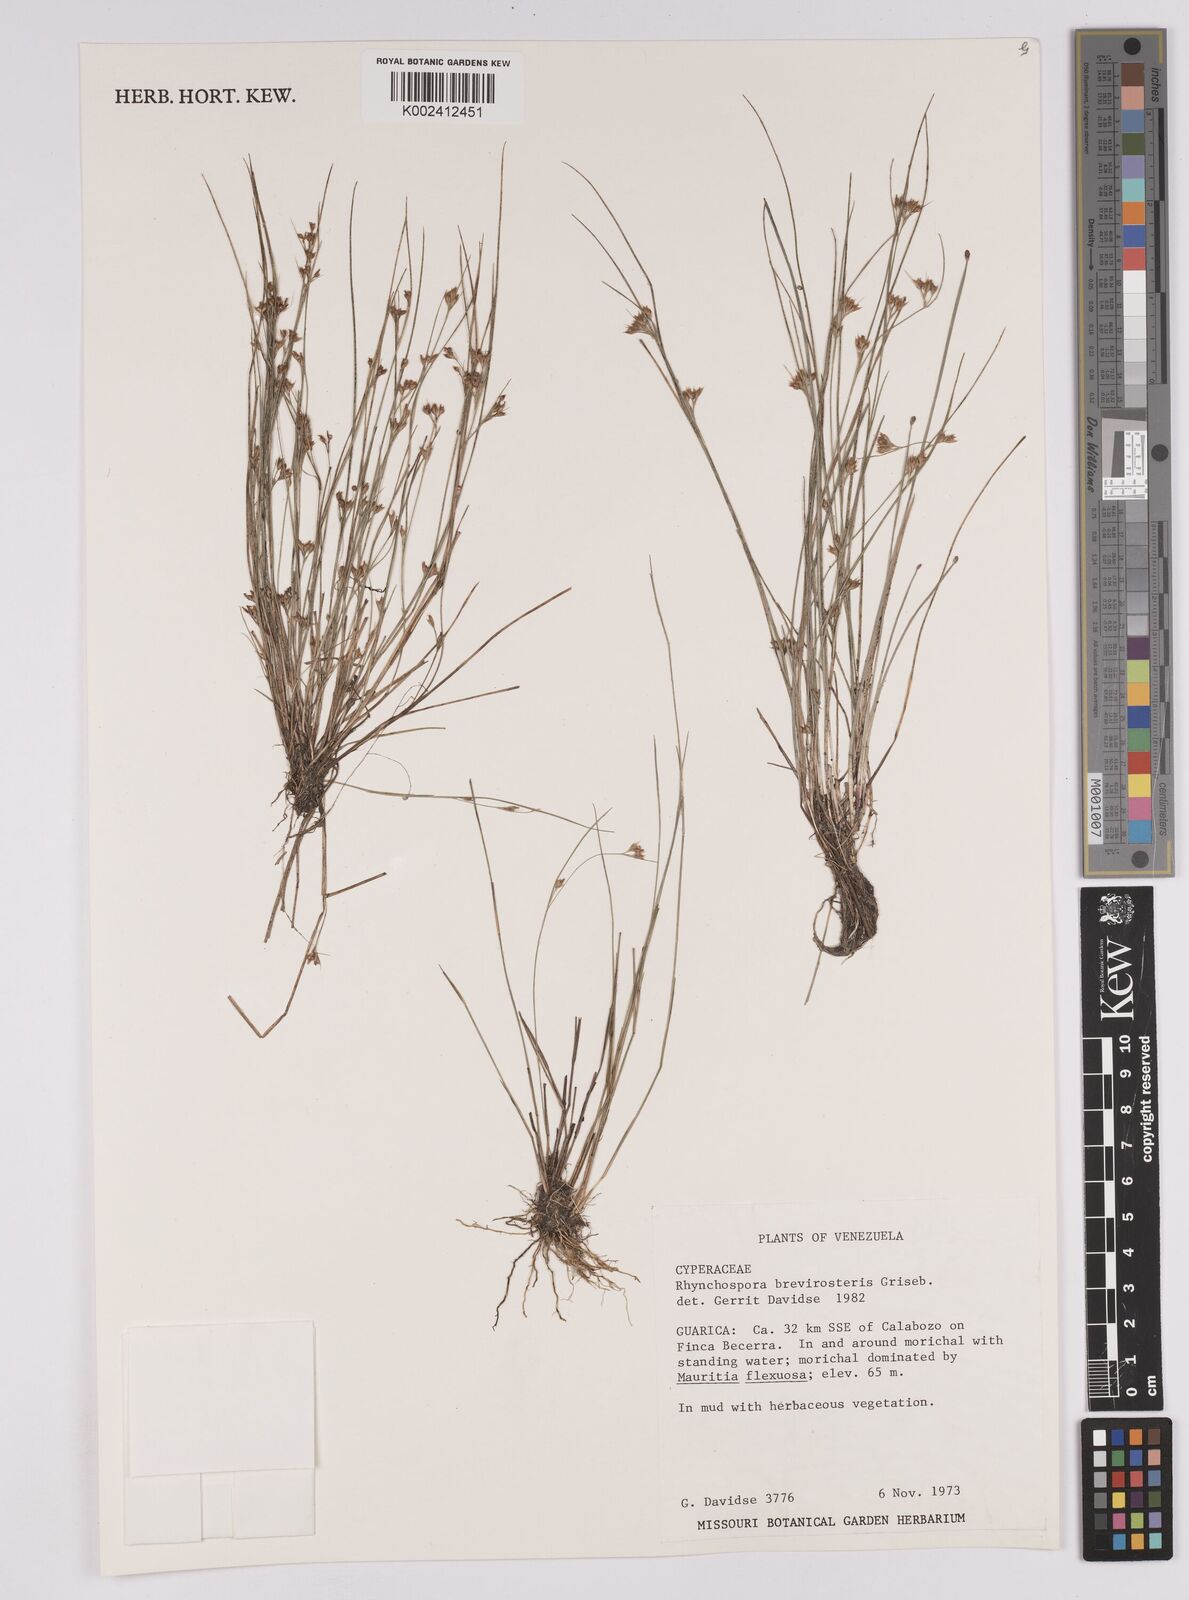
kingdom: Plantae
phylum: Tracheophyta
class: Liliopsida
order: Poales
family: Cyperaceae
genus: Rhynchospora
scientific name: Rhynchospora brevirostris
